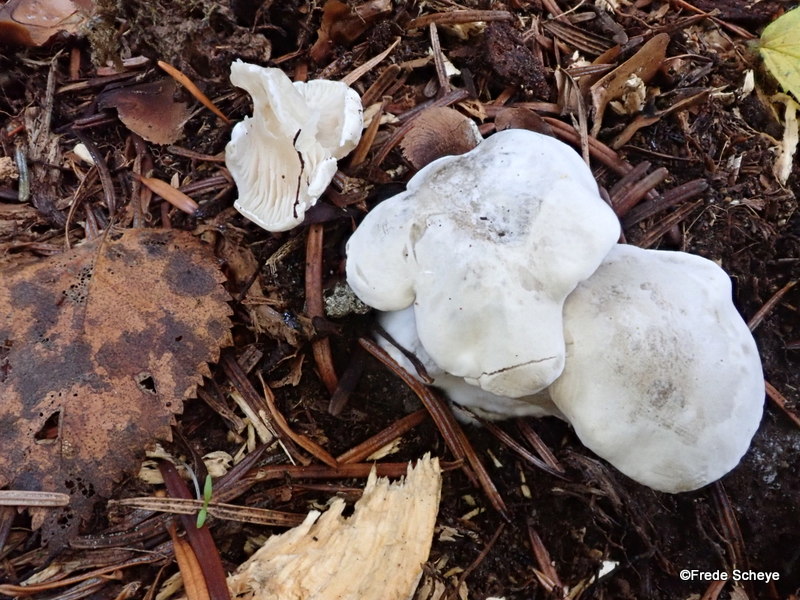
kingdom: Fungi
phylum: Basidiomycota
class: Agaricomycetes
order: Agaricales
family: Entolomataceae
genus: Clitopilus
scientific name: Clitopilus prunulus
